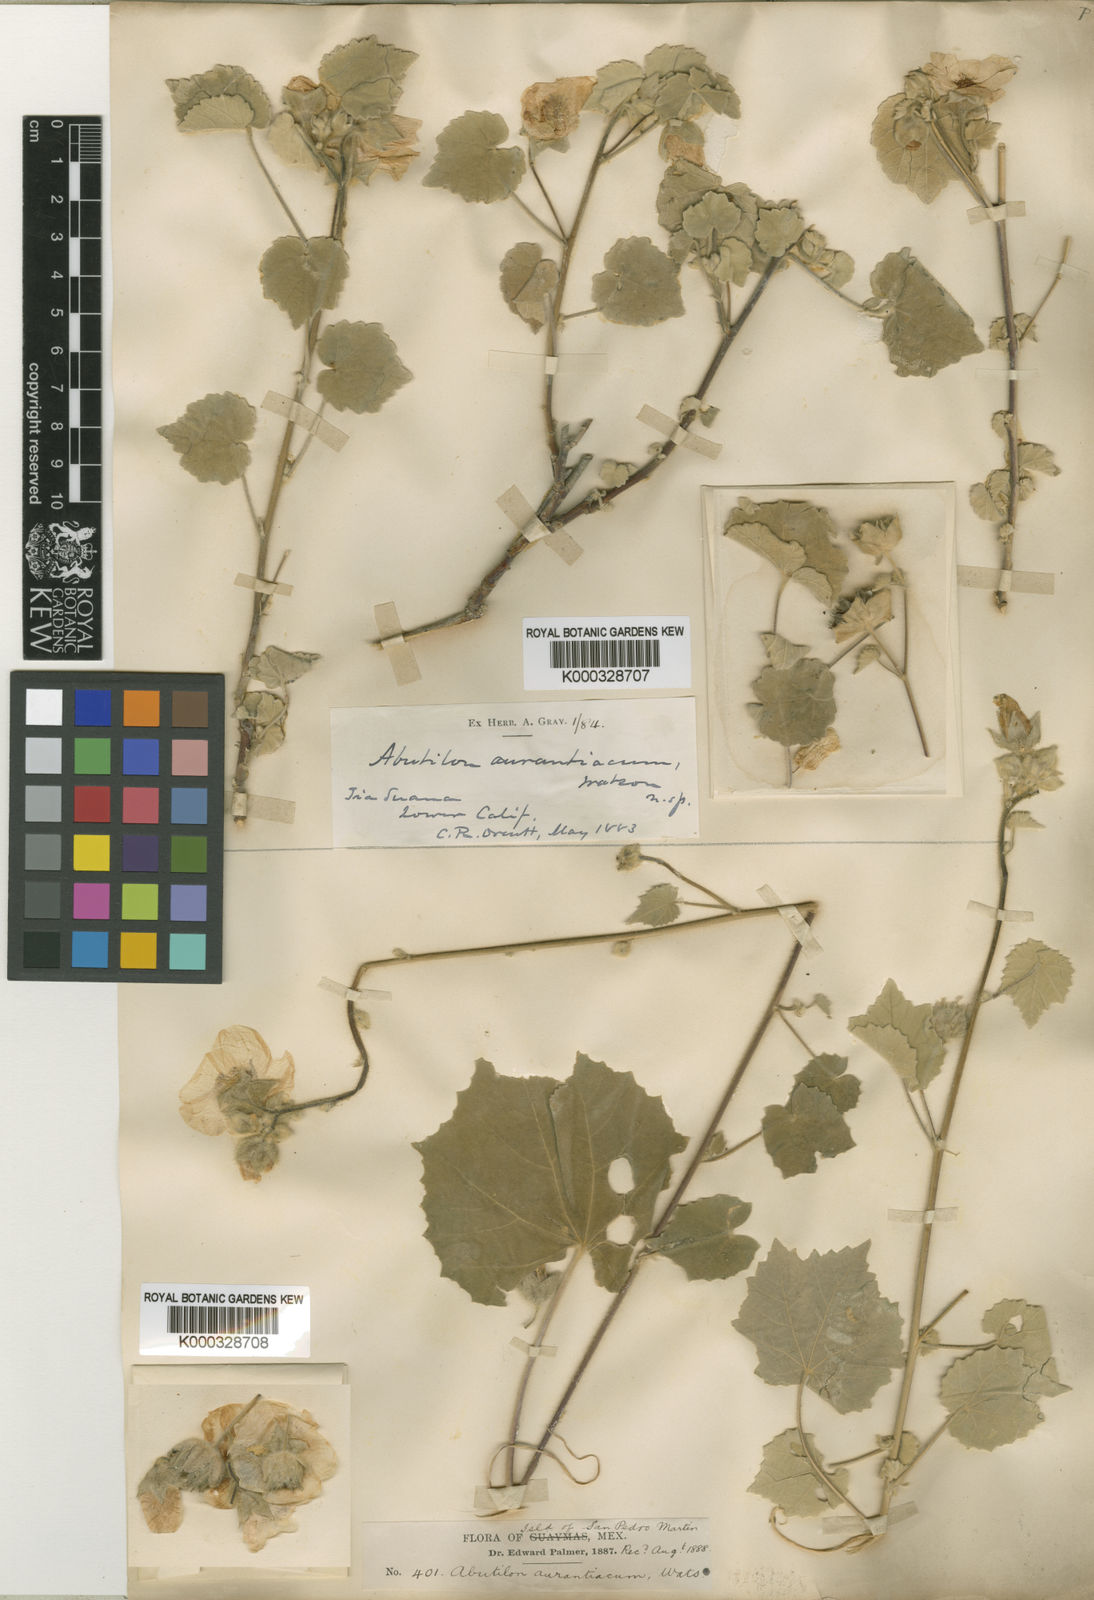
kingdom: Plantae
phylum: Tracheophyta
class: Magnoliopsida
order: Malvales
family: Malvaceae
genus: Abutilon
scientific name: Abutilon palmeri
